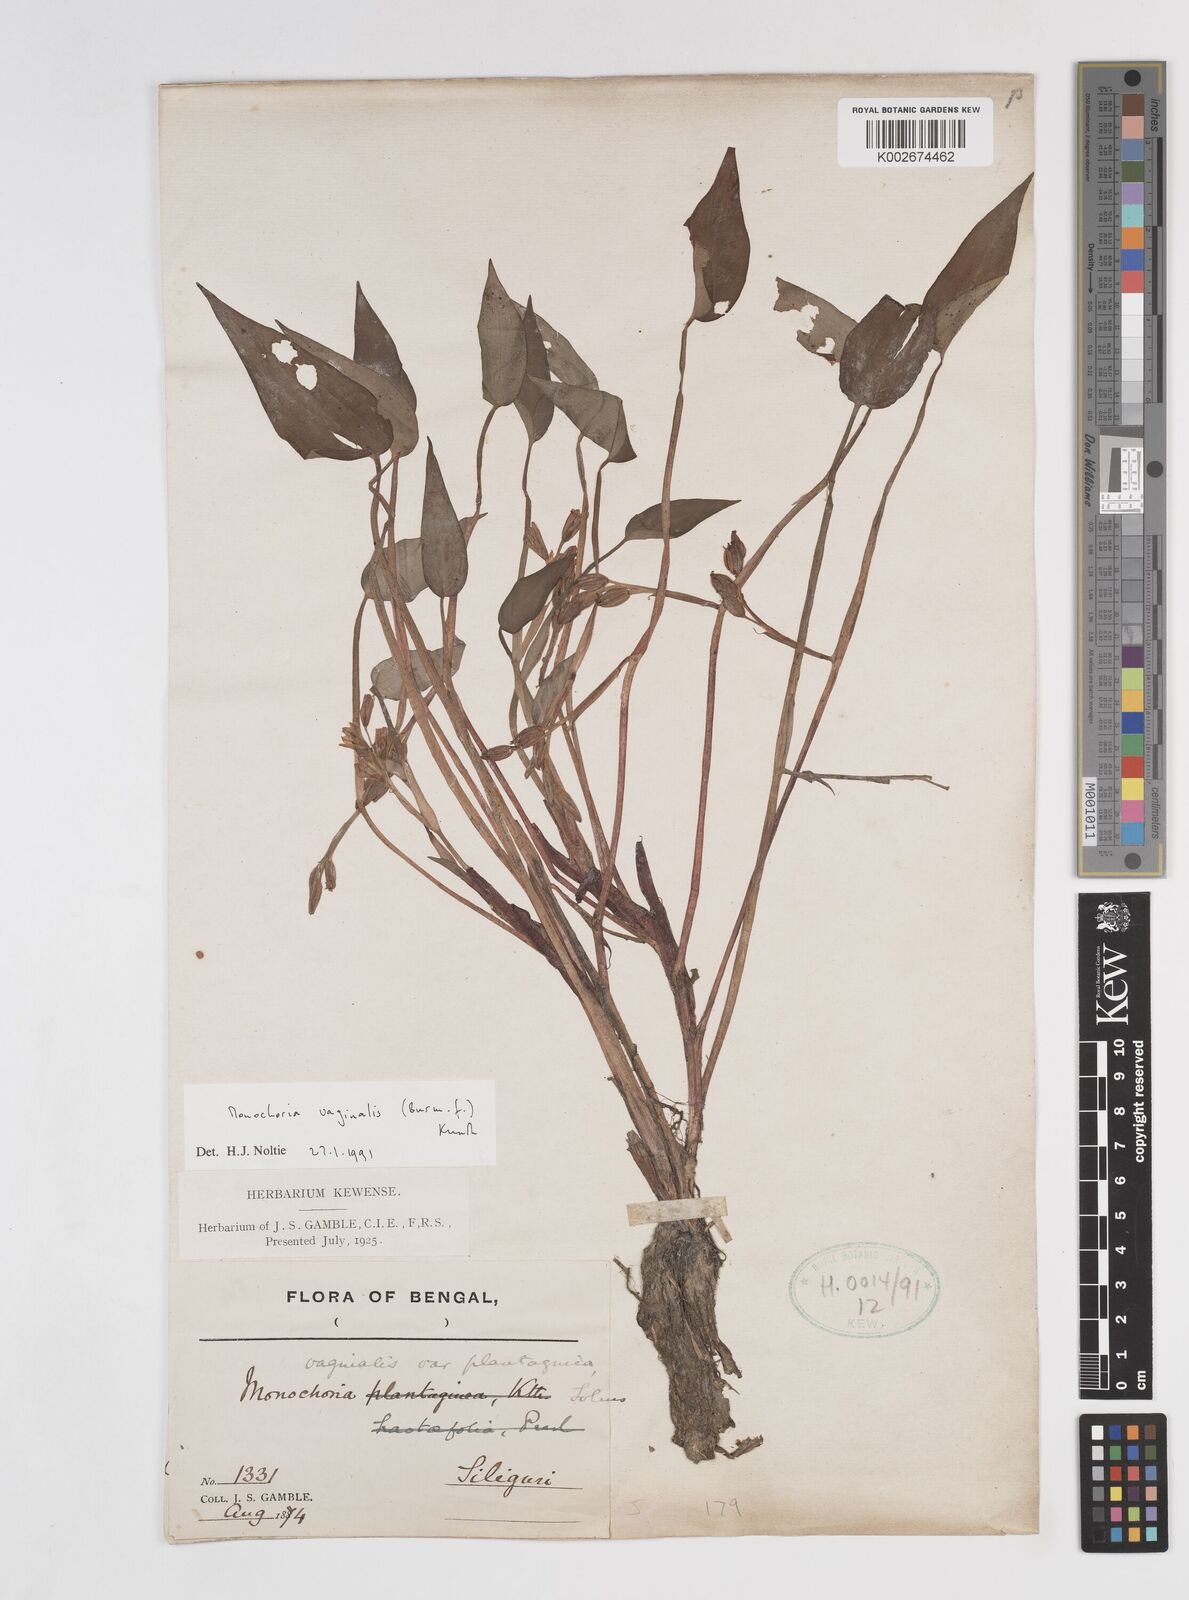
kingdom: Plantae
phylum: Tracheophyta
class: Liliopsida
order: Commelinales
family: Pontederiaceae
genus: Pontederia
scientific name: Pontederia vaginalis
